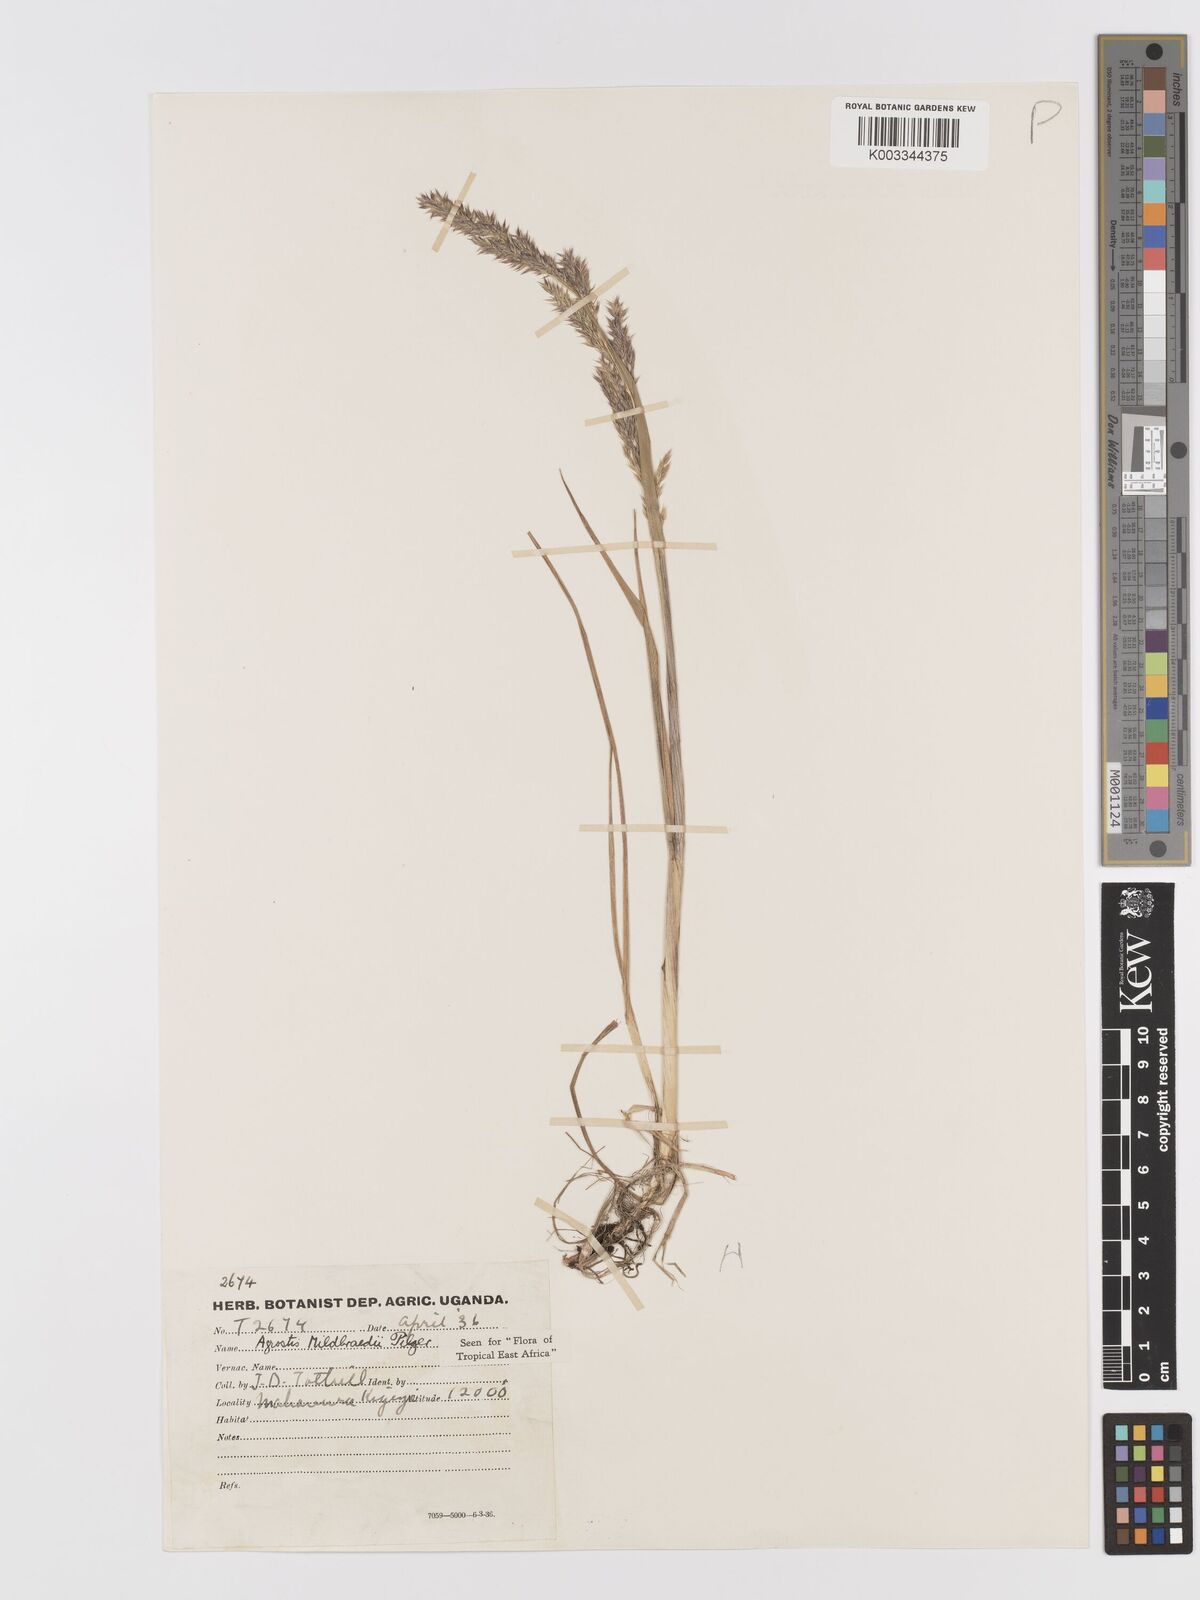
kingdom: Plantae
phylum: Tracheophyta
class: Liliopsida
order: Poales
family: Poaceae
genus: Agrostis
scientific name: Agrostis quinqueseta
